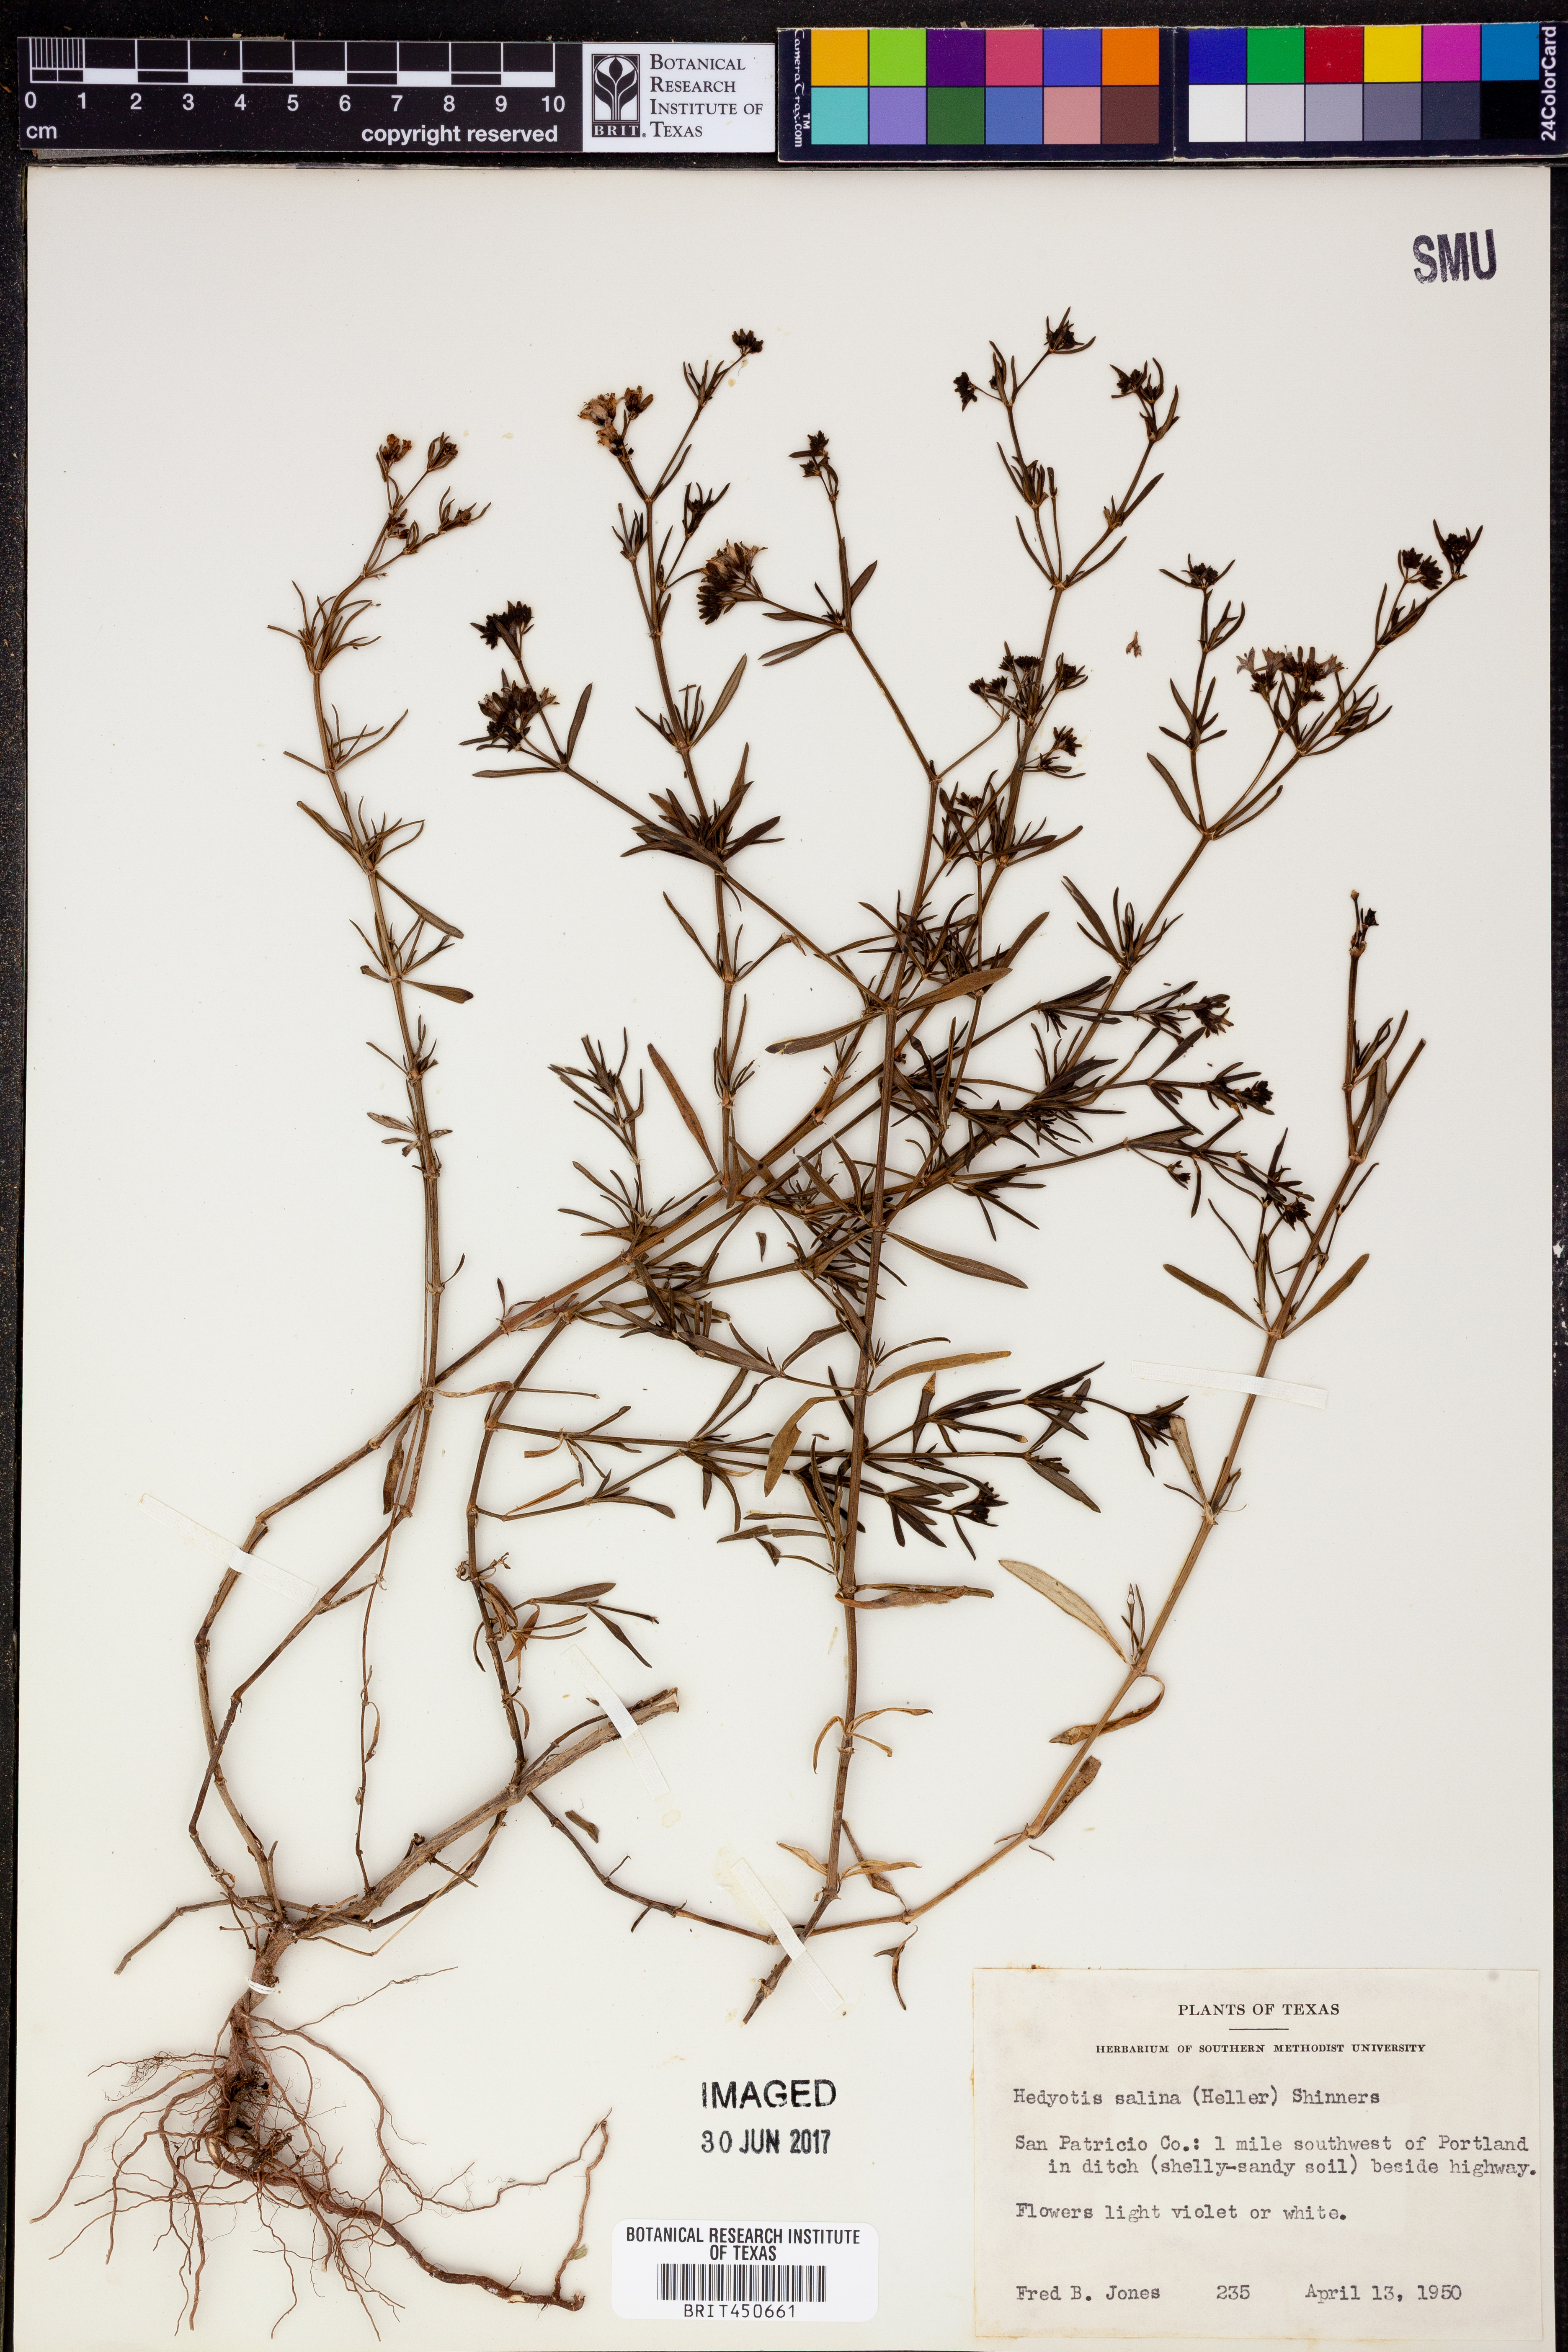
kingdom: Plantae
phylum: Tracheophyta
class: Magnoliopsida
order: Gentianales
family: Rubiaceae
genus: Stenaria
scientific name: Stenaria nigricans
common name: Diamondflowers
